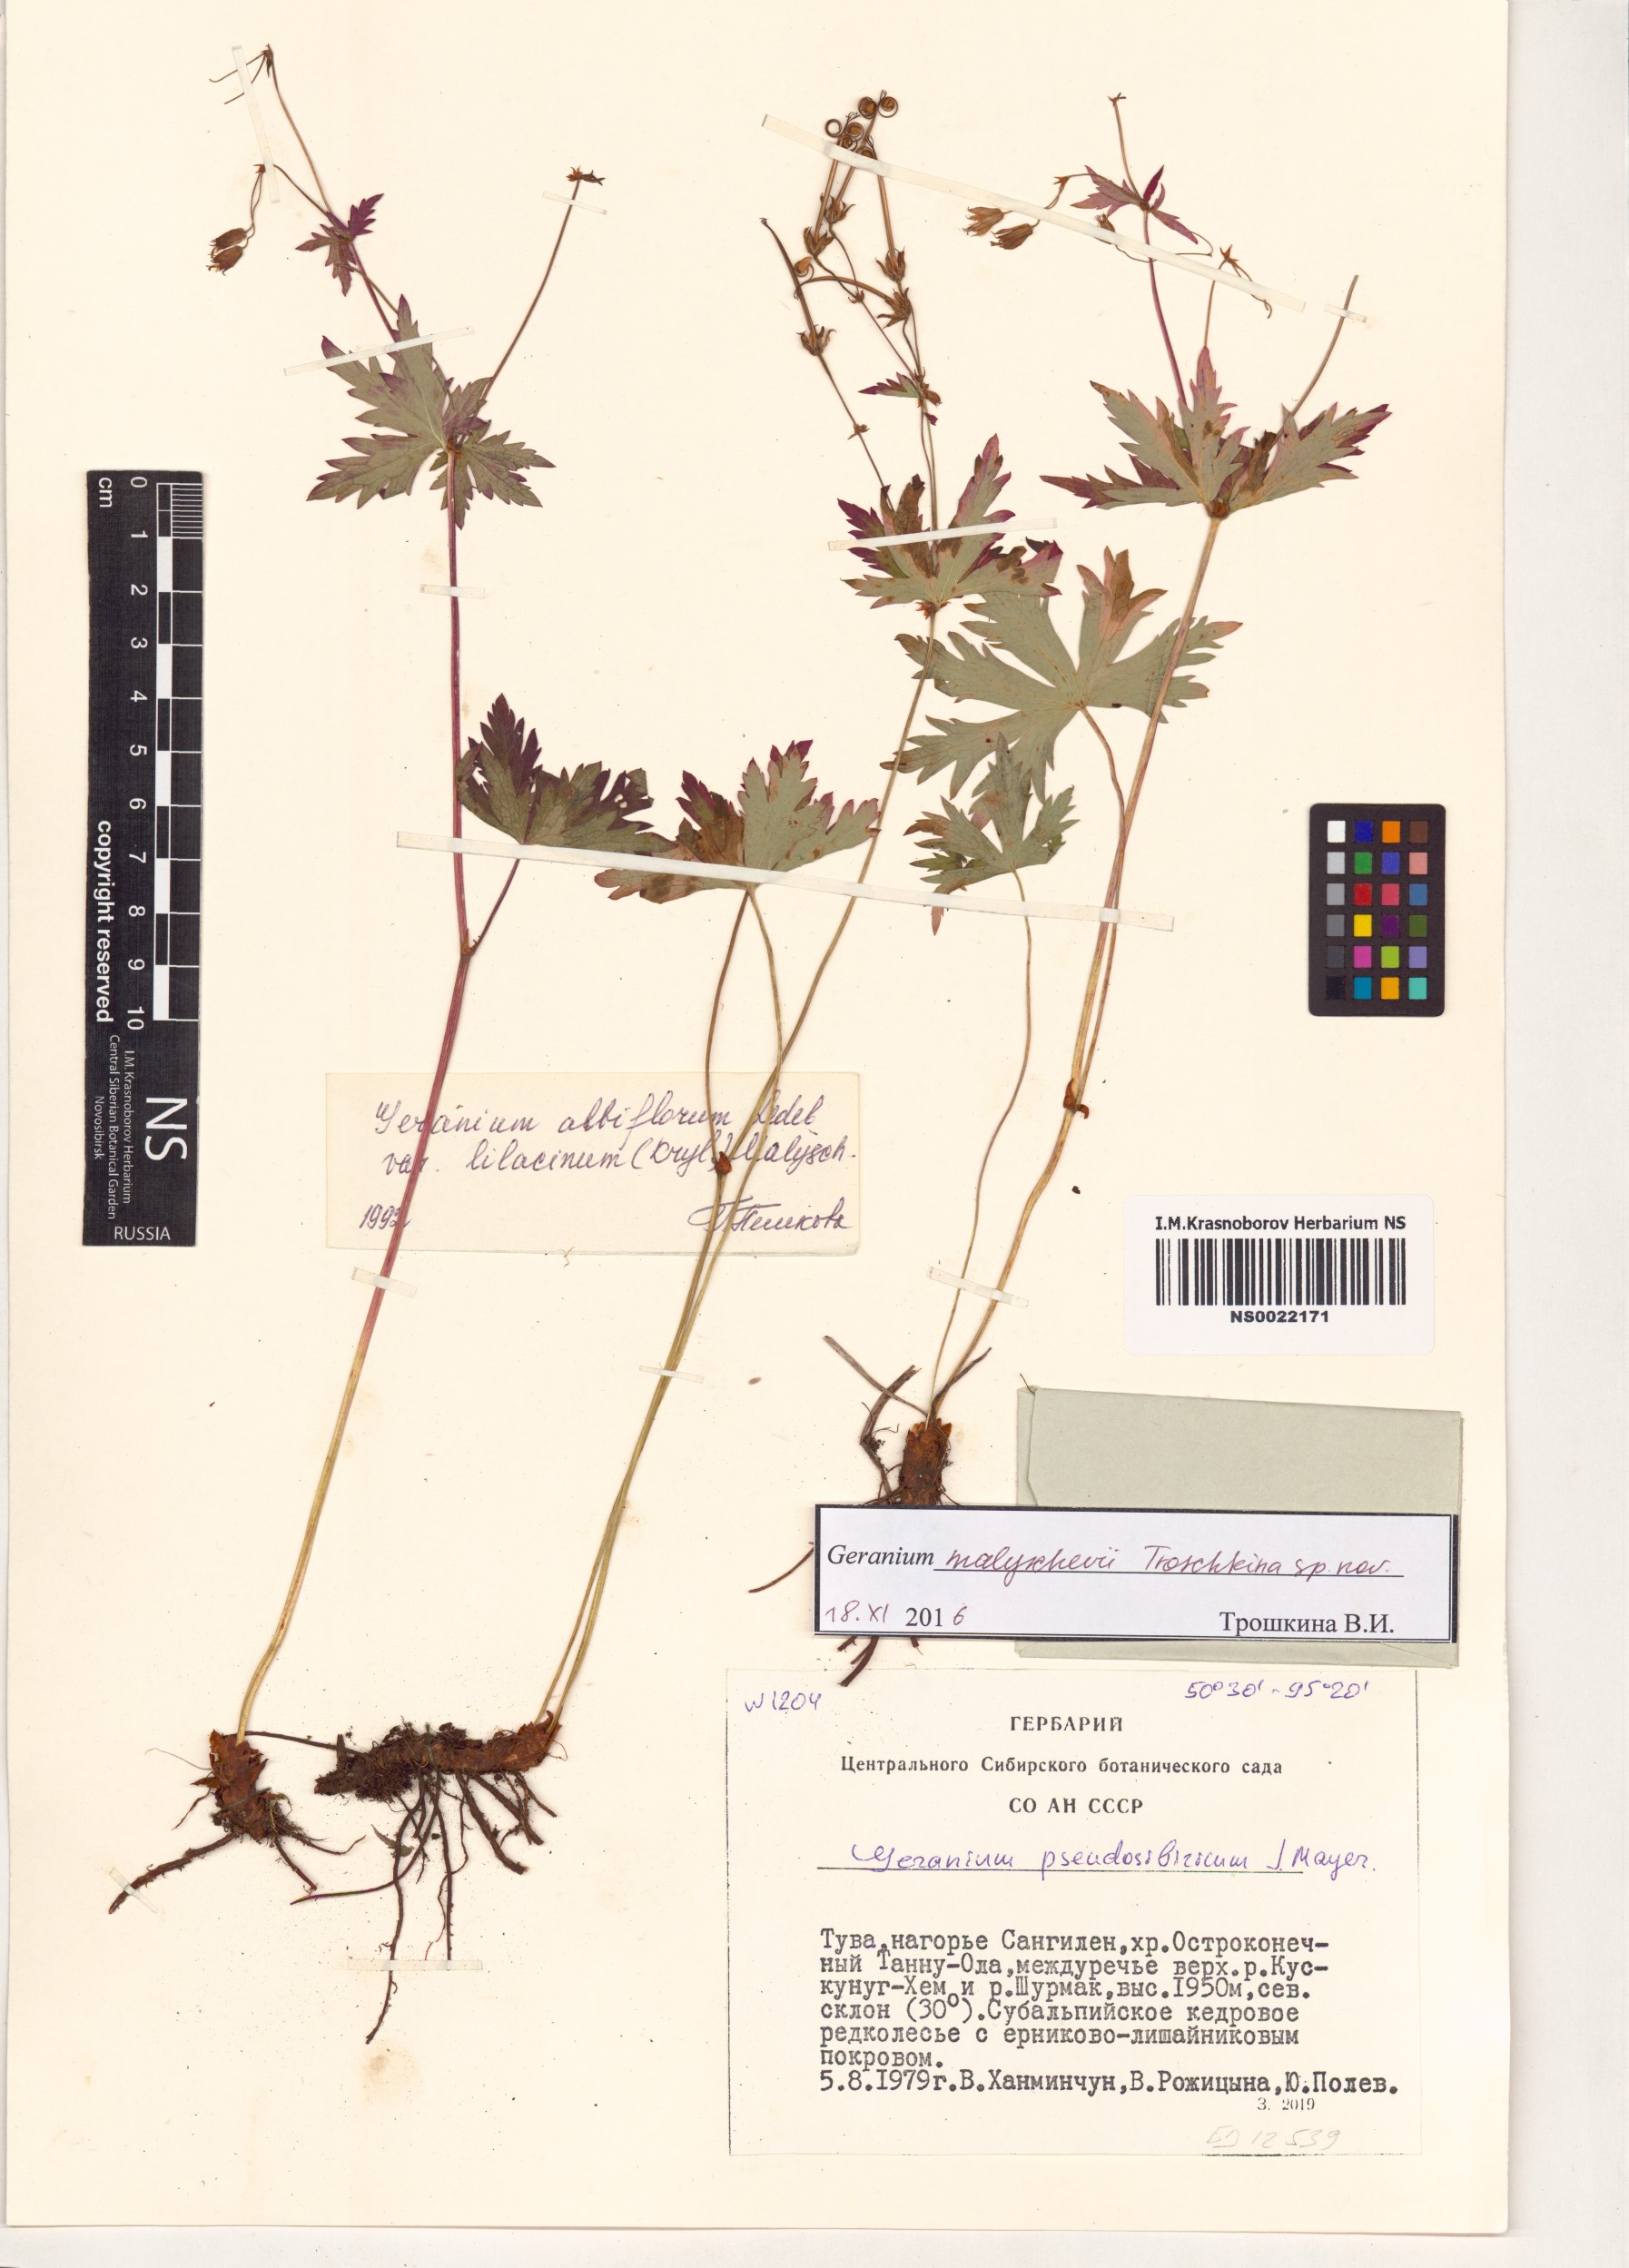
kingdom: Plantae
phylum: Tracheophyta
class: Magnoliopsida
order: Geraniales
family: Geraniaceae
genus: Geranium
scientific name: Geranium malyschevii
